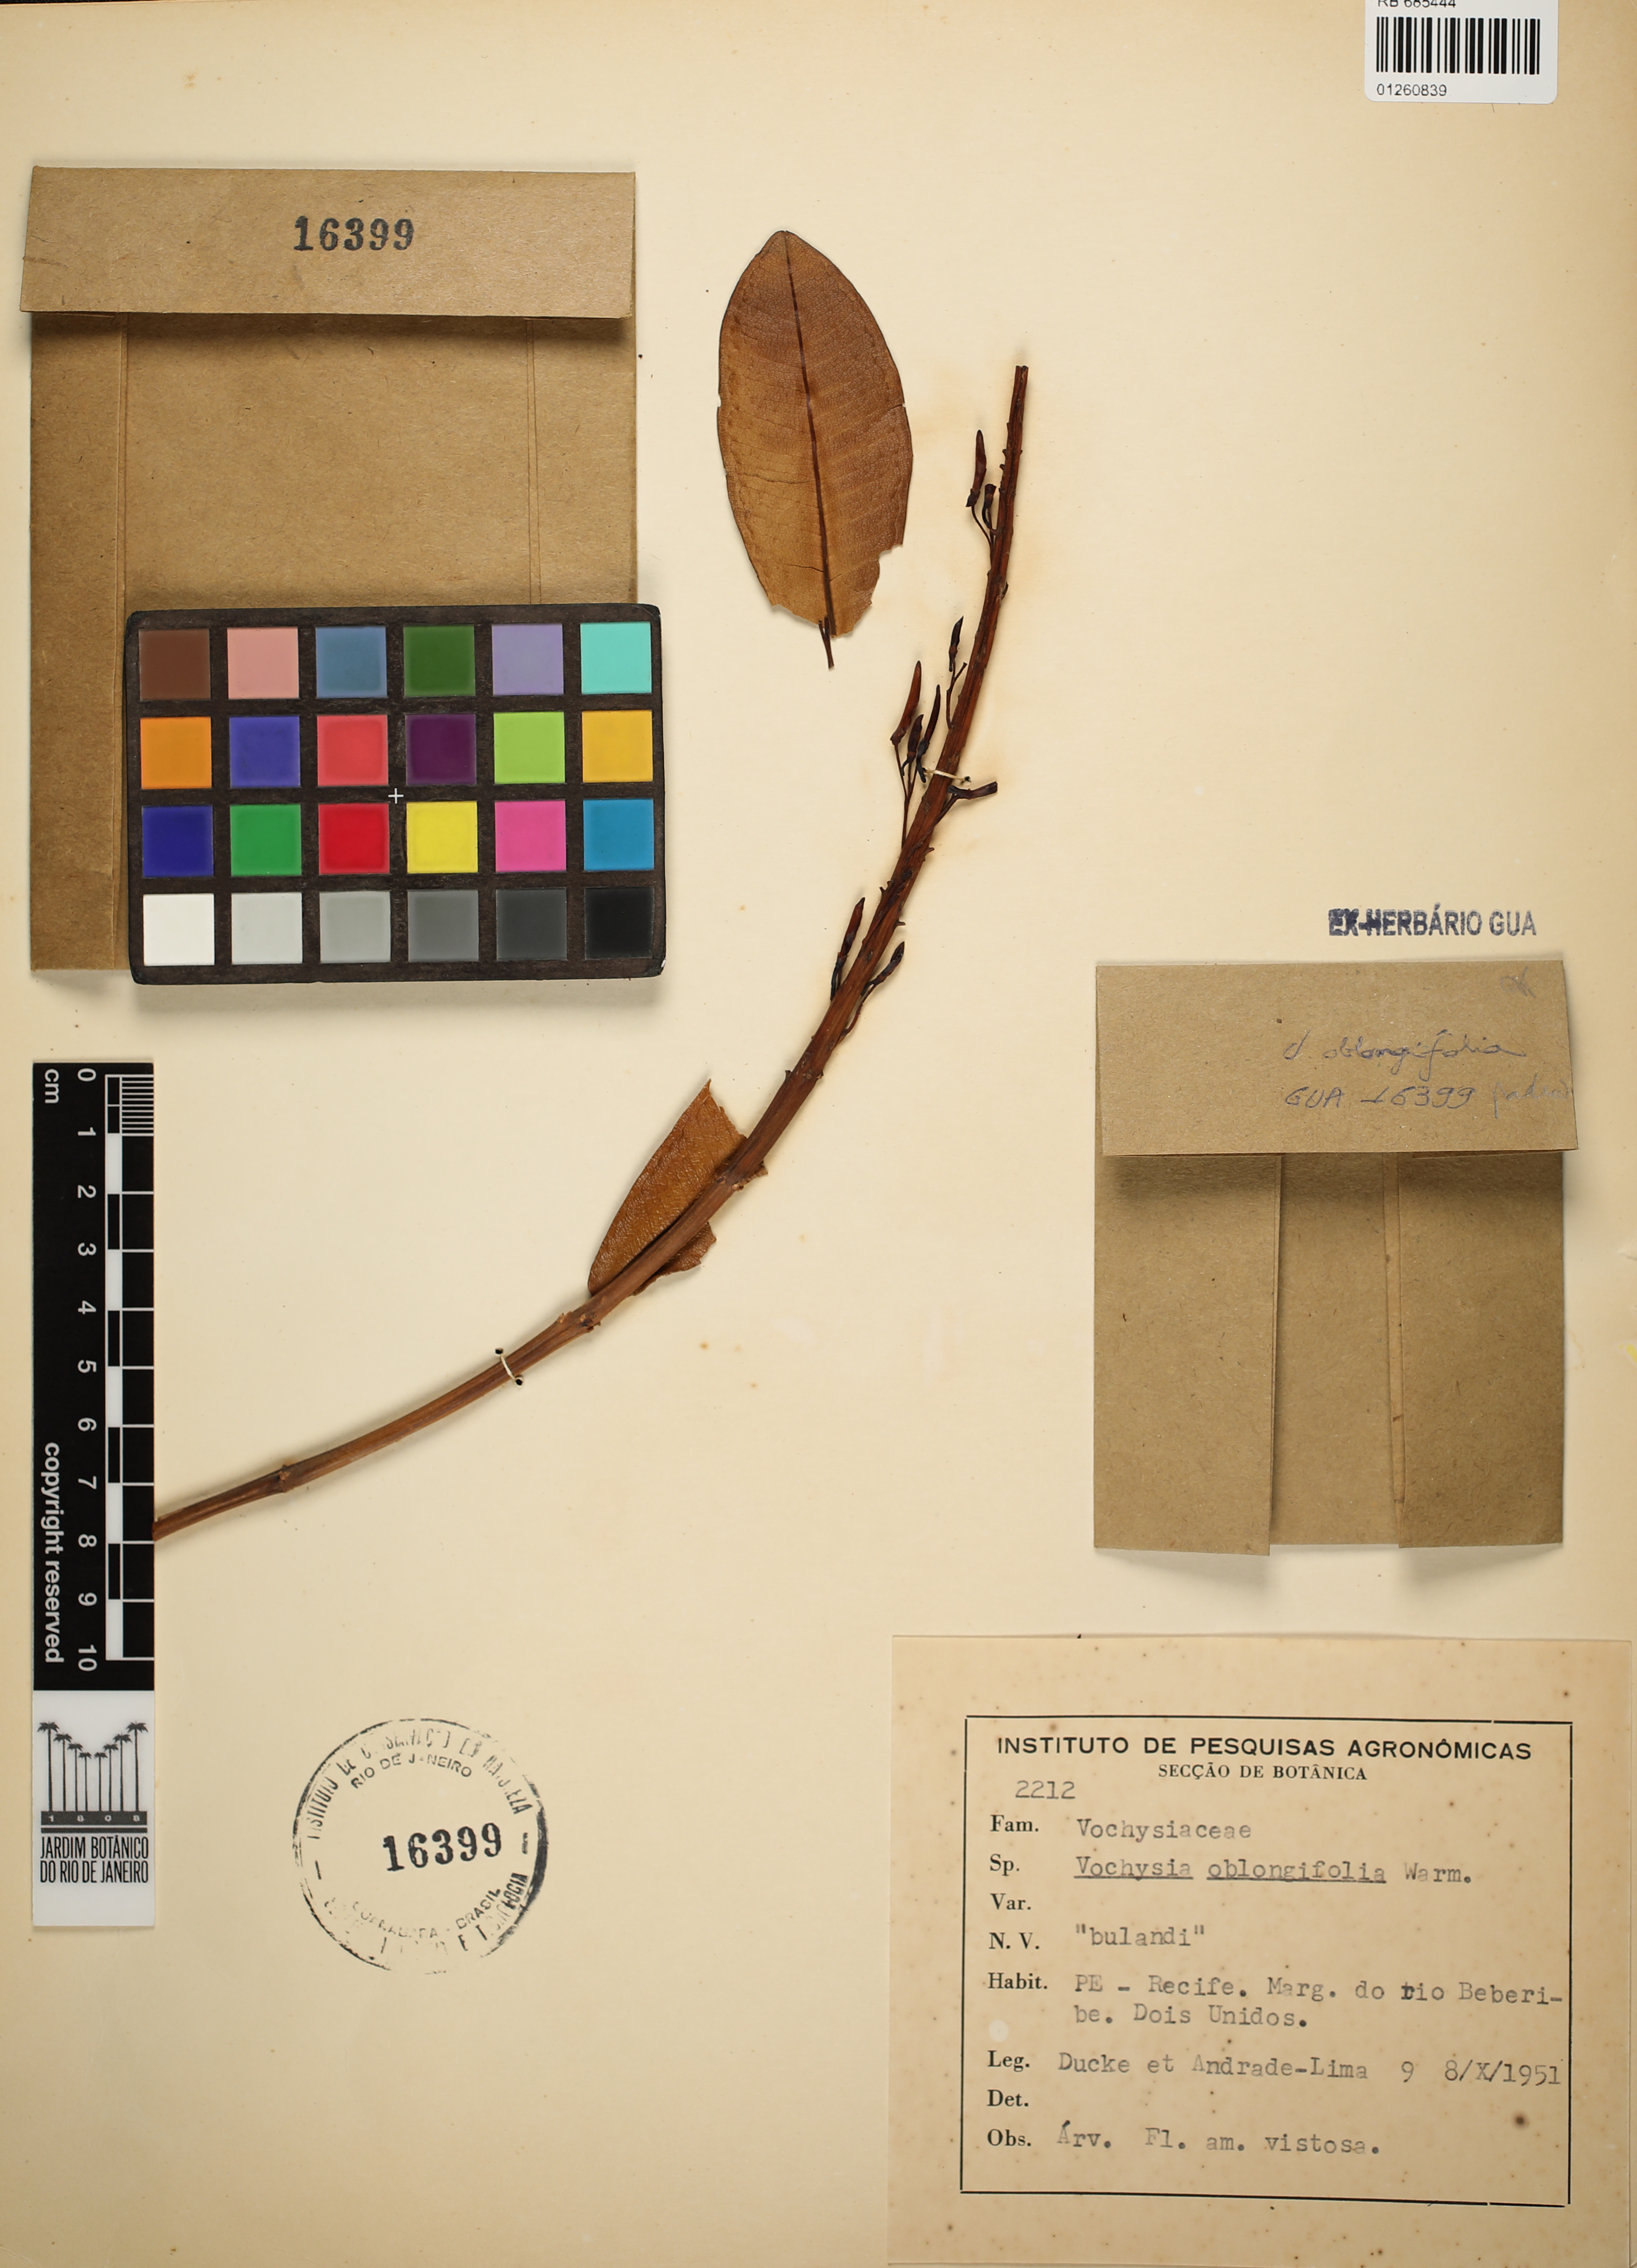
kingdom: Plantae
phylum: Tracheophyta
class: Magnoliopsida
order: Myrtales
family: Vochysiaceae
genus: Vochysia
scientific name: Vochysia oblongifolia
